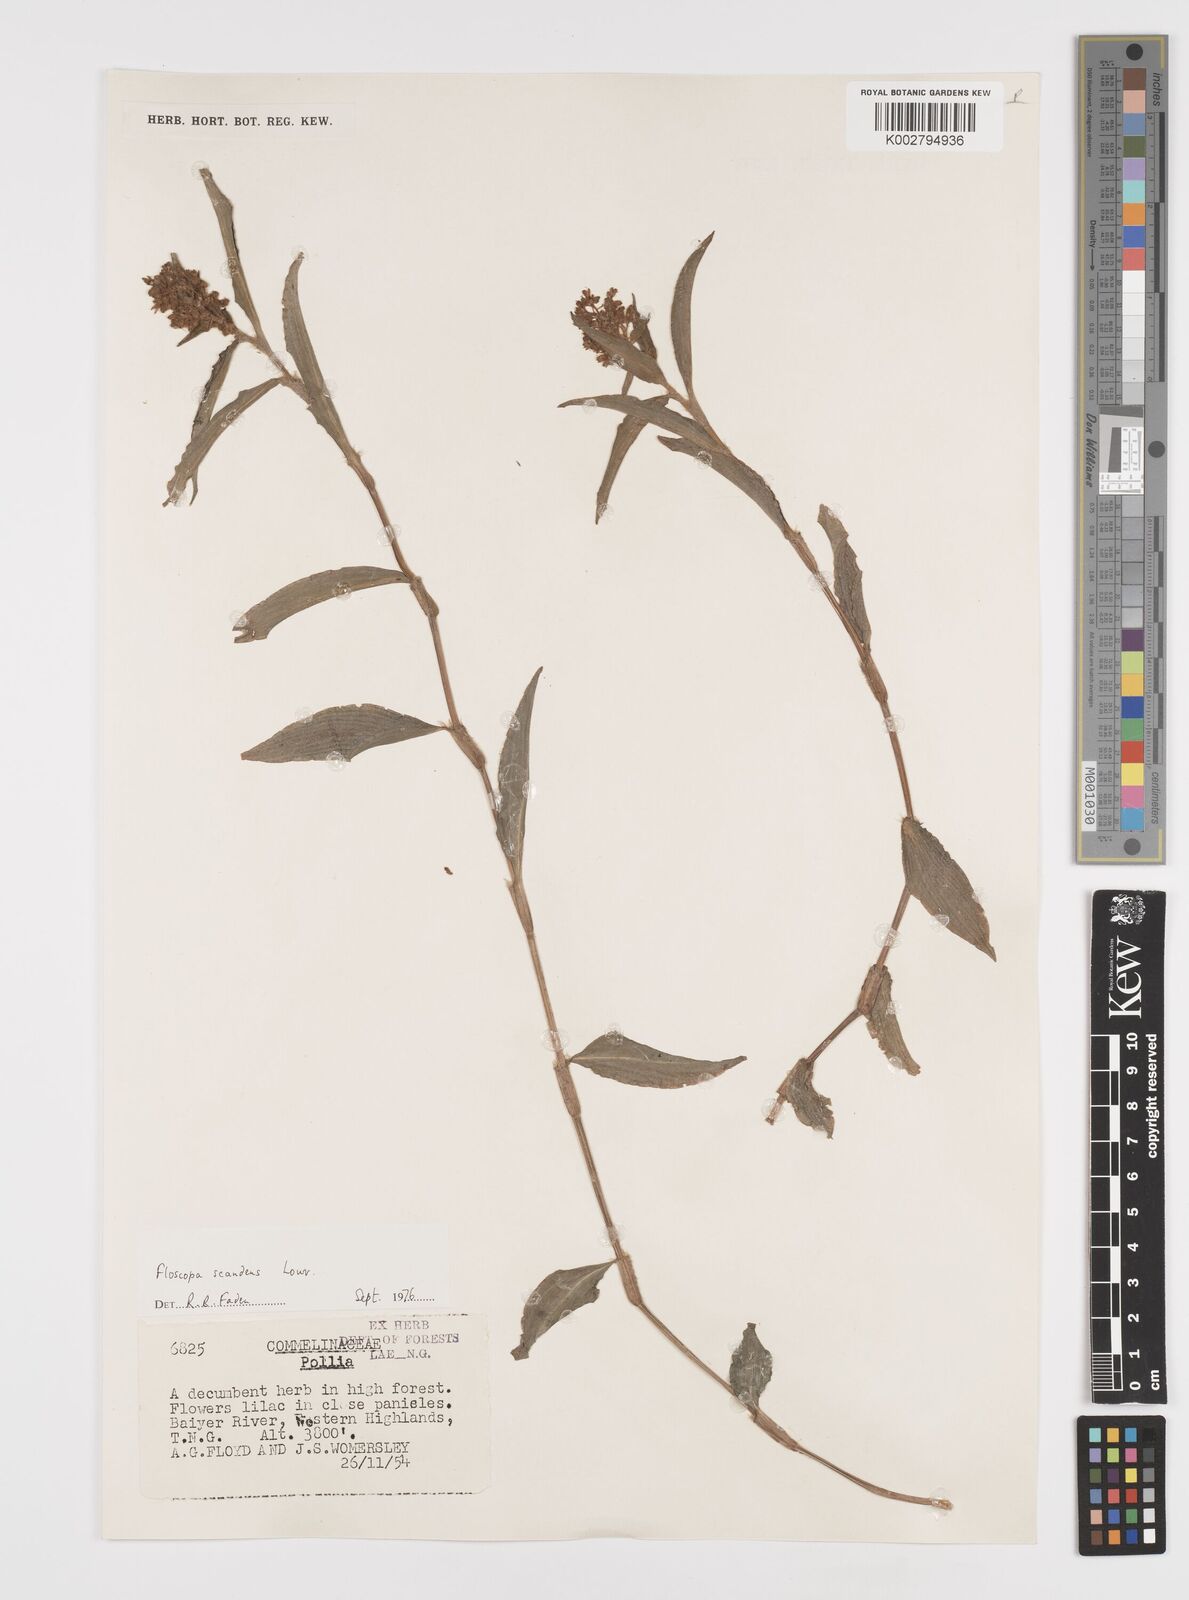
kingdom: Plantae
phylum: Tracheophyta
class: Liliopsida
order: Commelinales
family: Commelinaceae
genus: Floscopa
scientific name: Floscopa scandens
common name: Climbing flower cup
